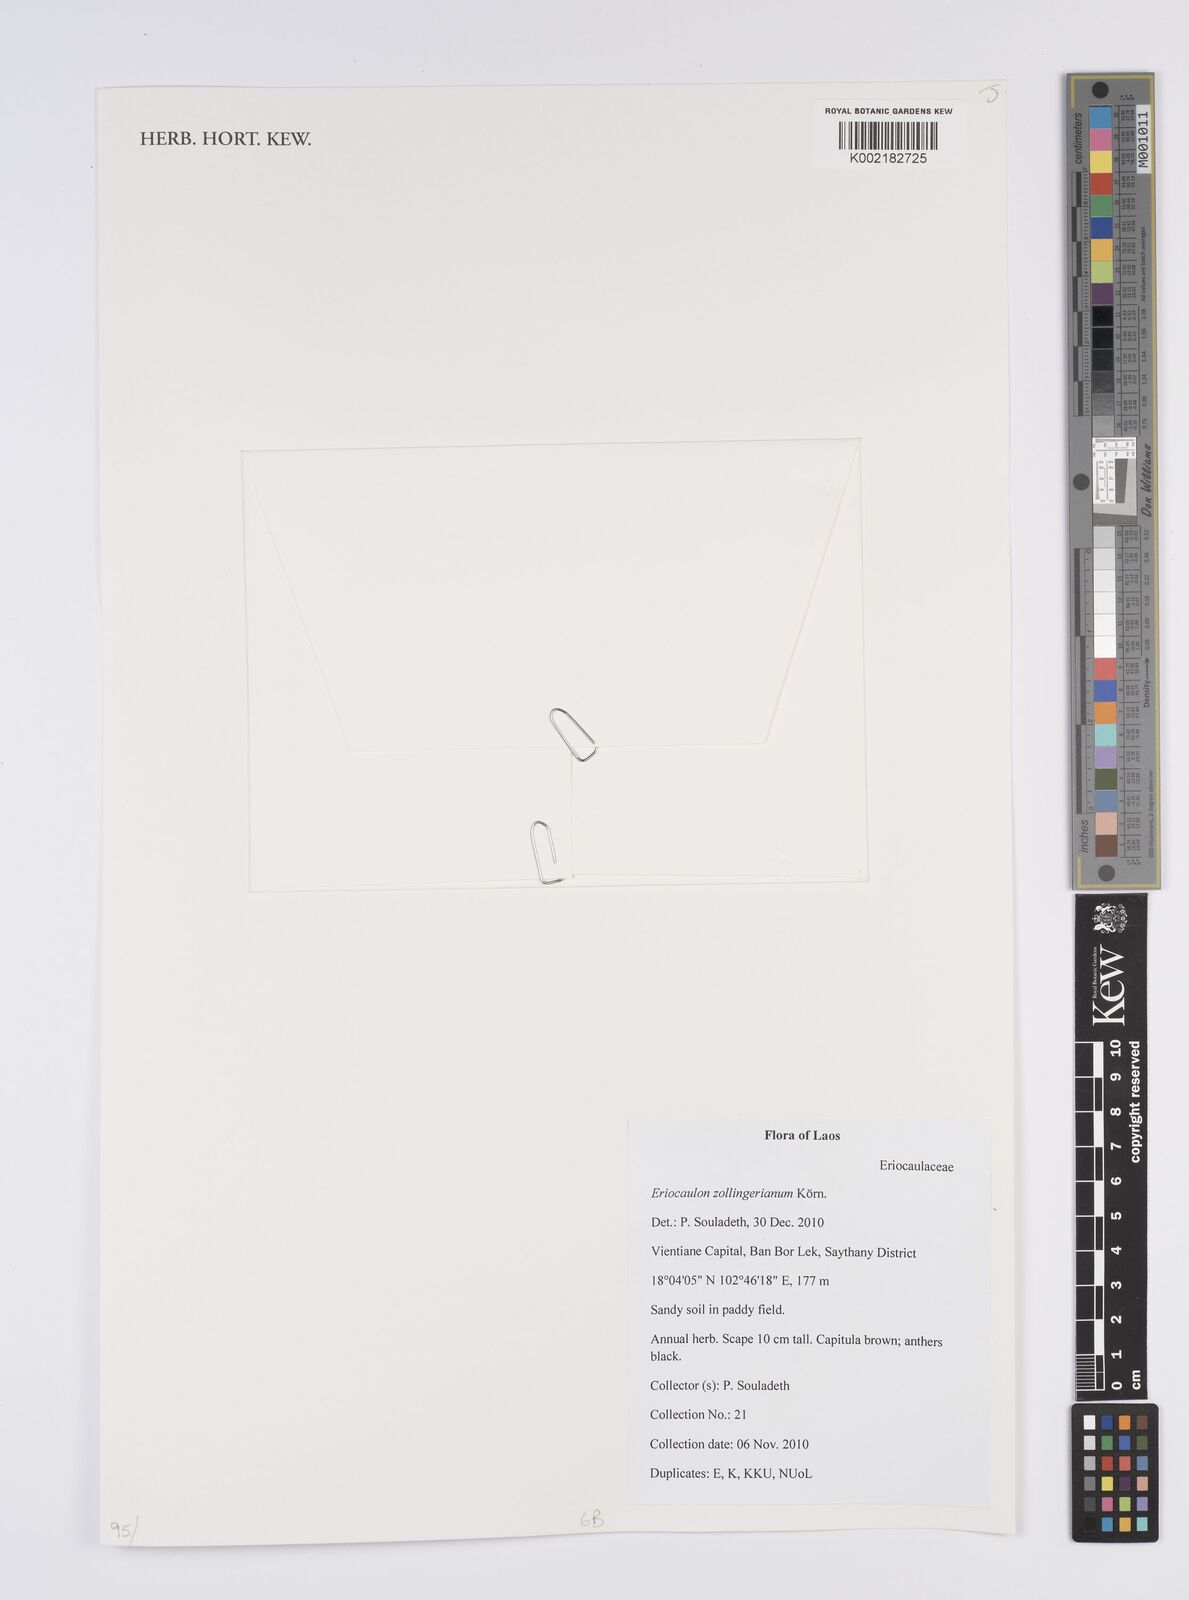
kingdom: Plantae
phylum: Tracheophyta
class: Liliopsida
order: Poales
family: Eriocaulaceae
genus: Eriocaulon
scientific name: Eriocaulon zollingerianum
